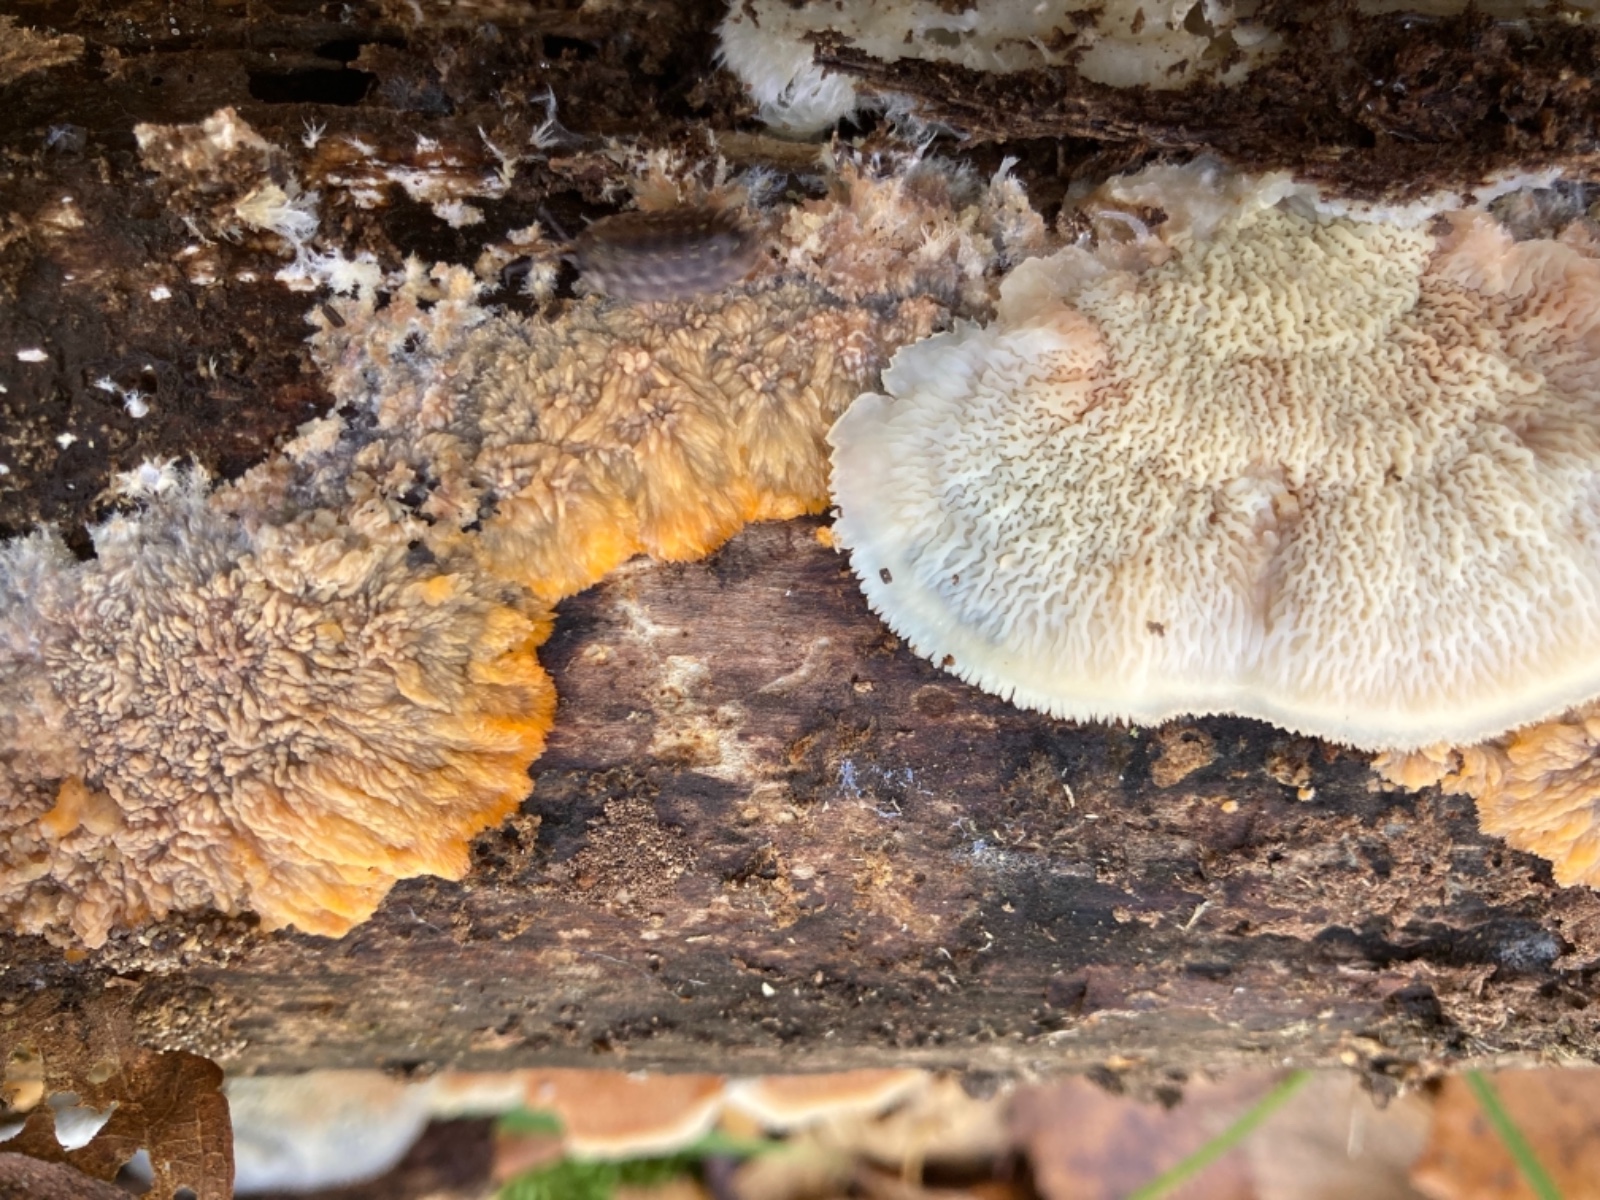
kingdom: Fungi
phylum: Basidiomycota
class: Agaricomycetes
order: Polyporales
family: Meruliaceae
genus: Phlebia
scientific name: Phlebia tremellosa
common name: bævrende åresvamp
